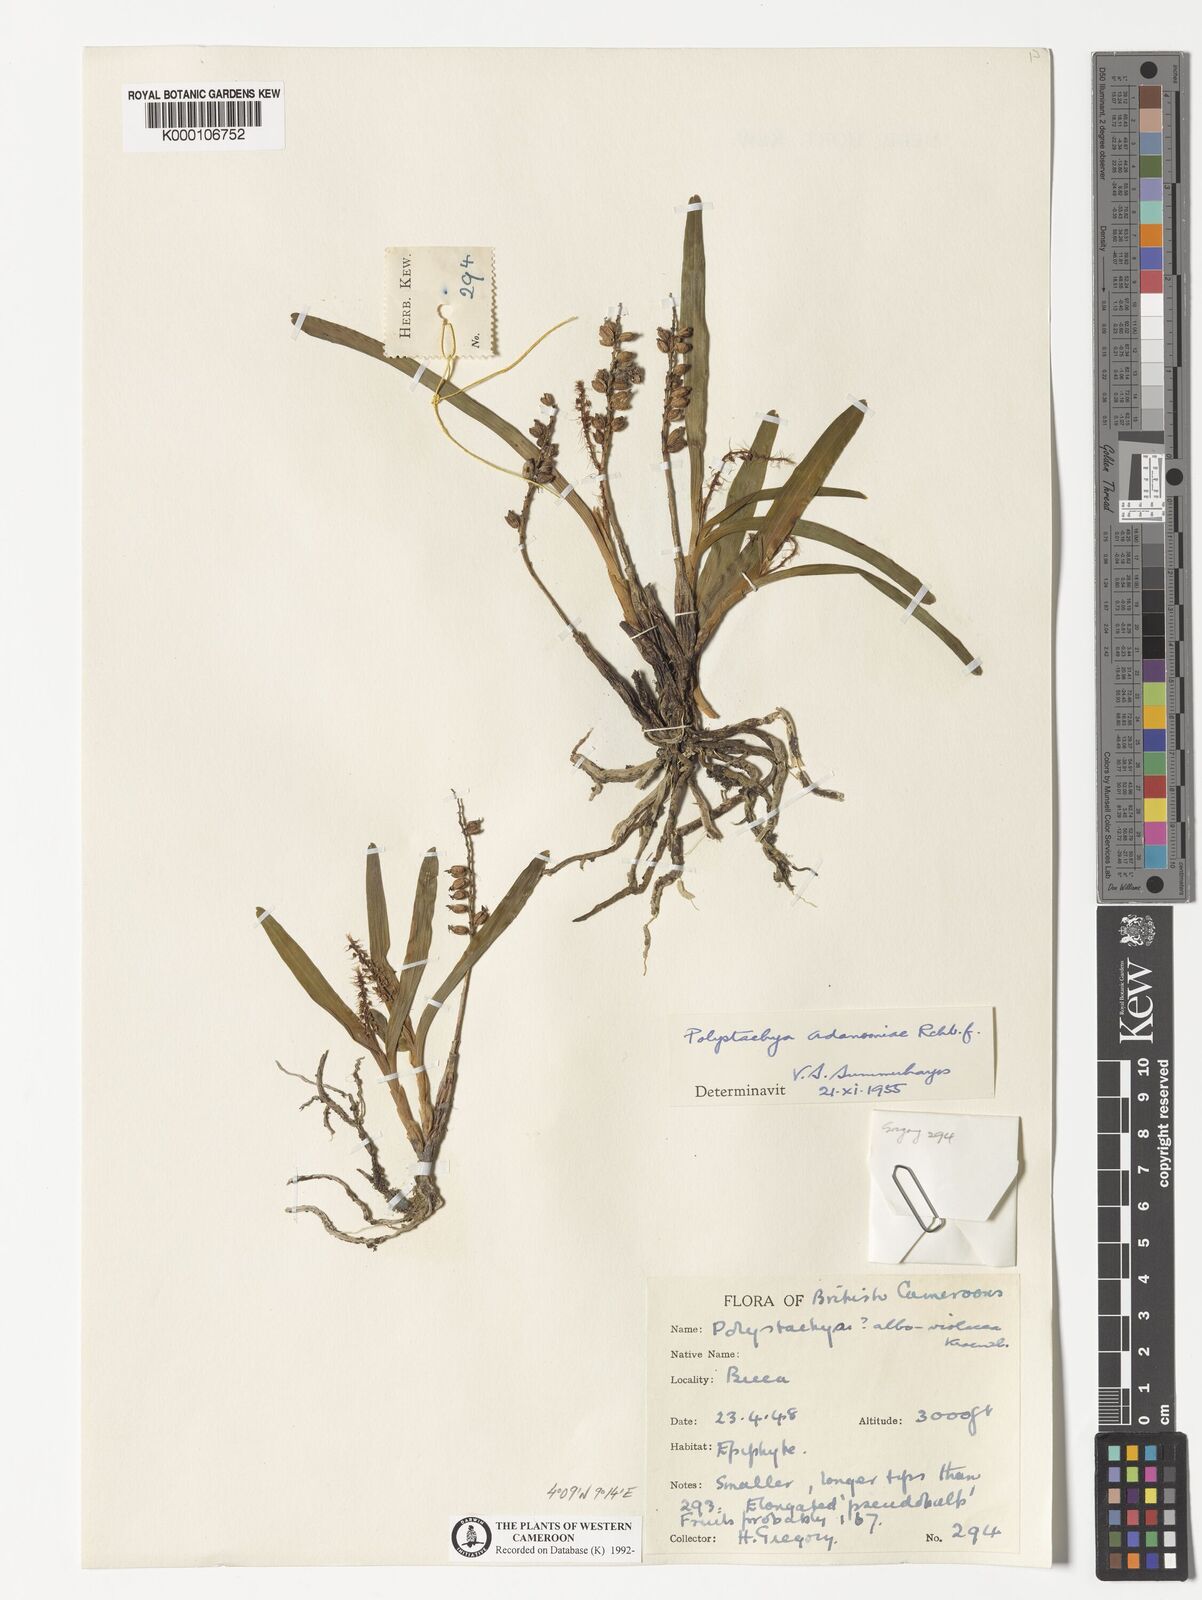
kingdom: Plantae
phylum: Tracheophyta
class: Liliopsida
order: Asparagales
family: Orchidaceae
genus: Polystachya
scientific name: Polystachya adansoniae
